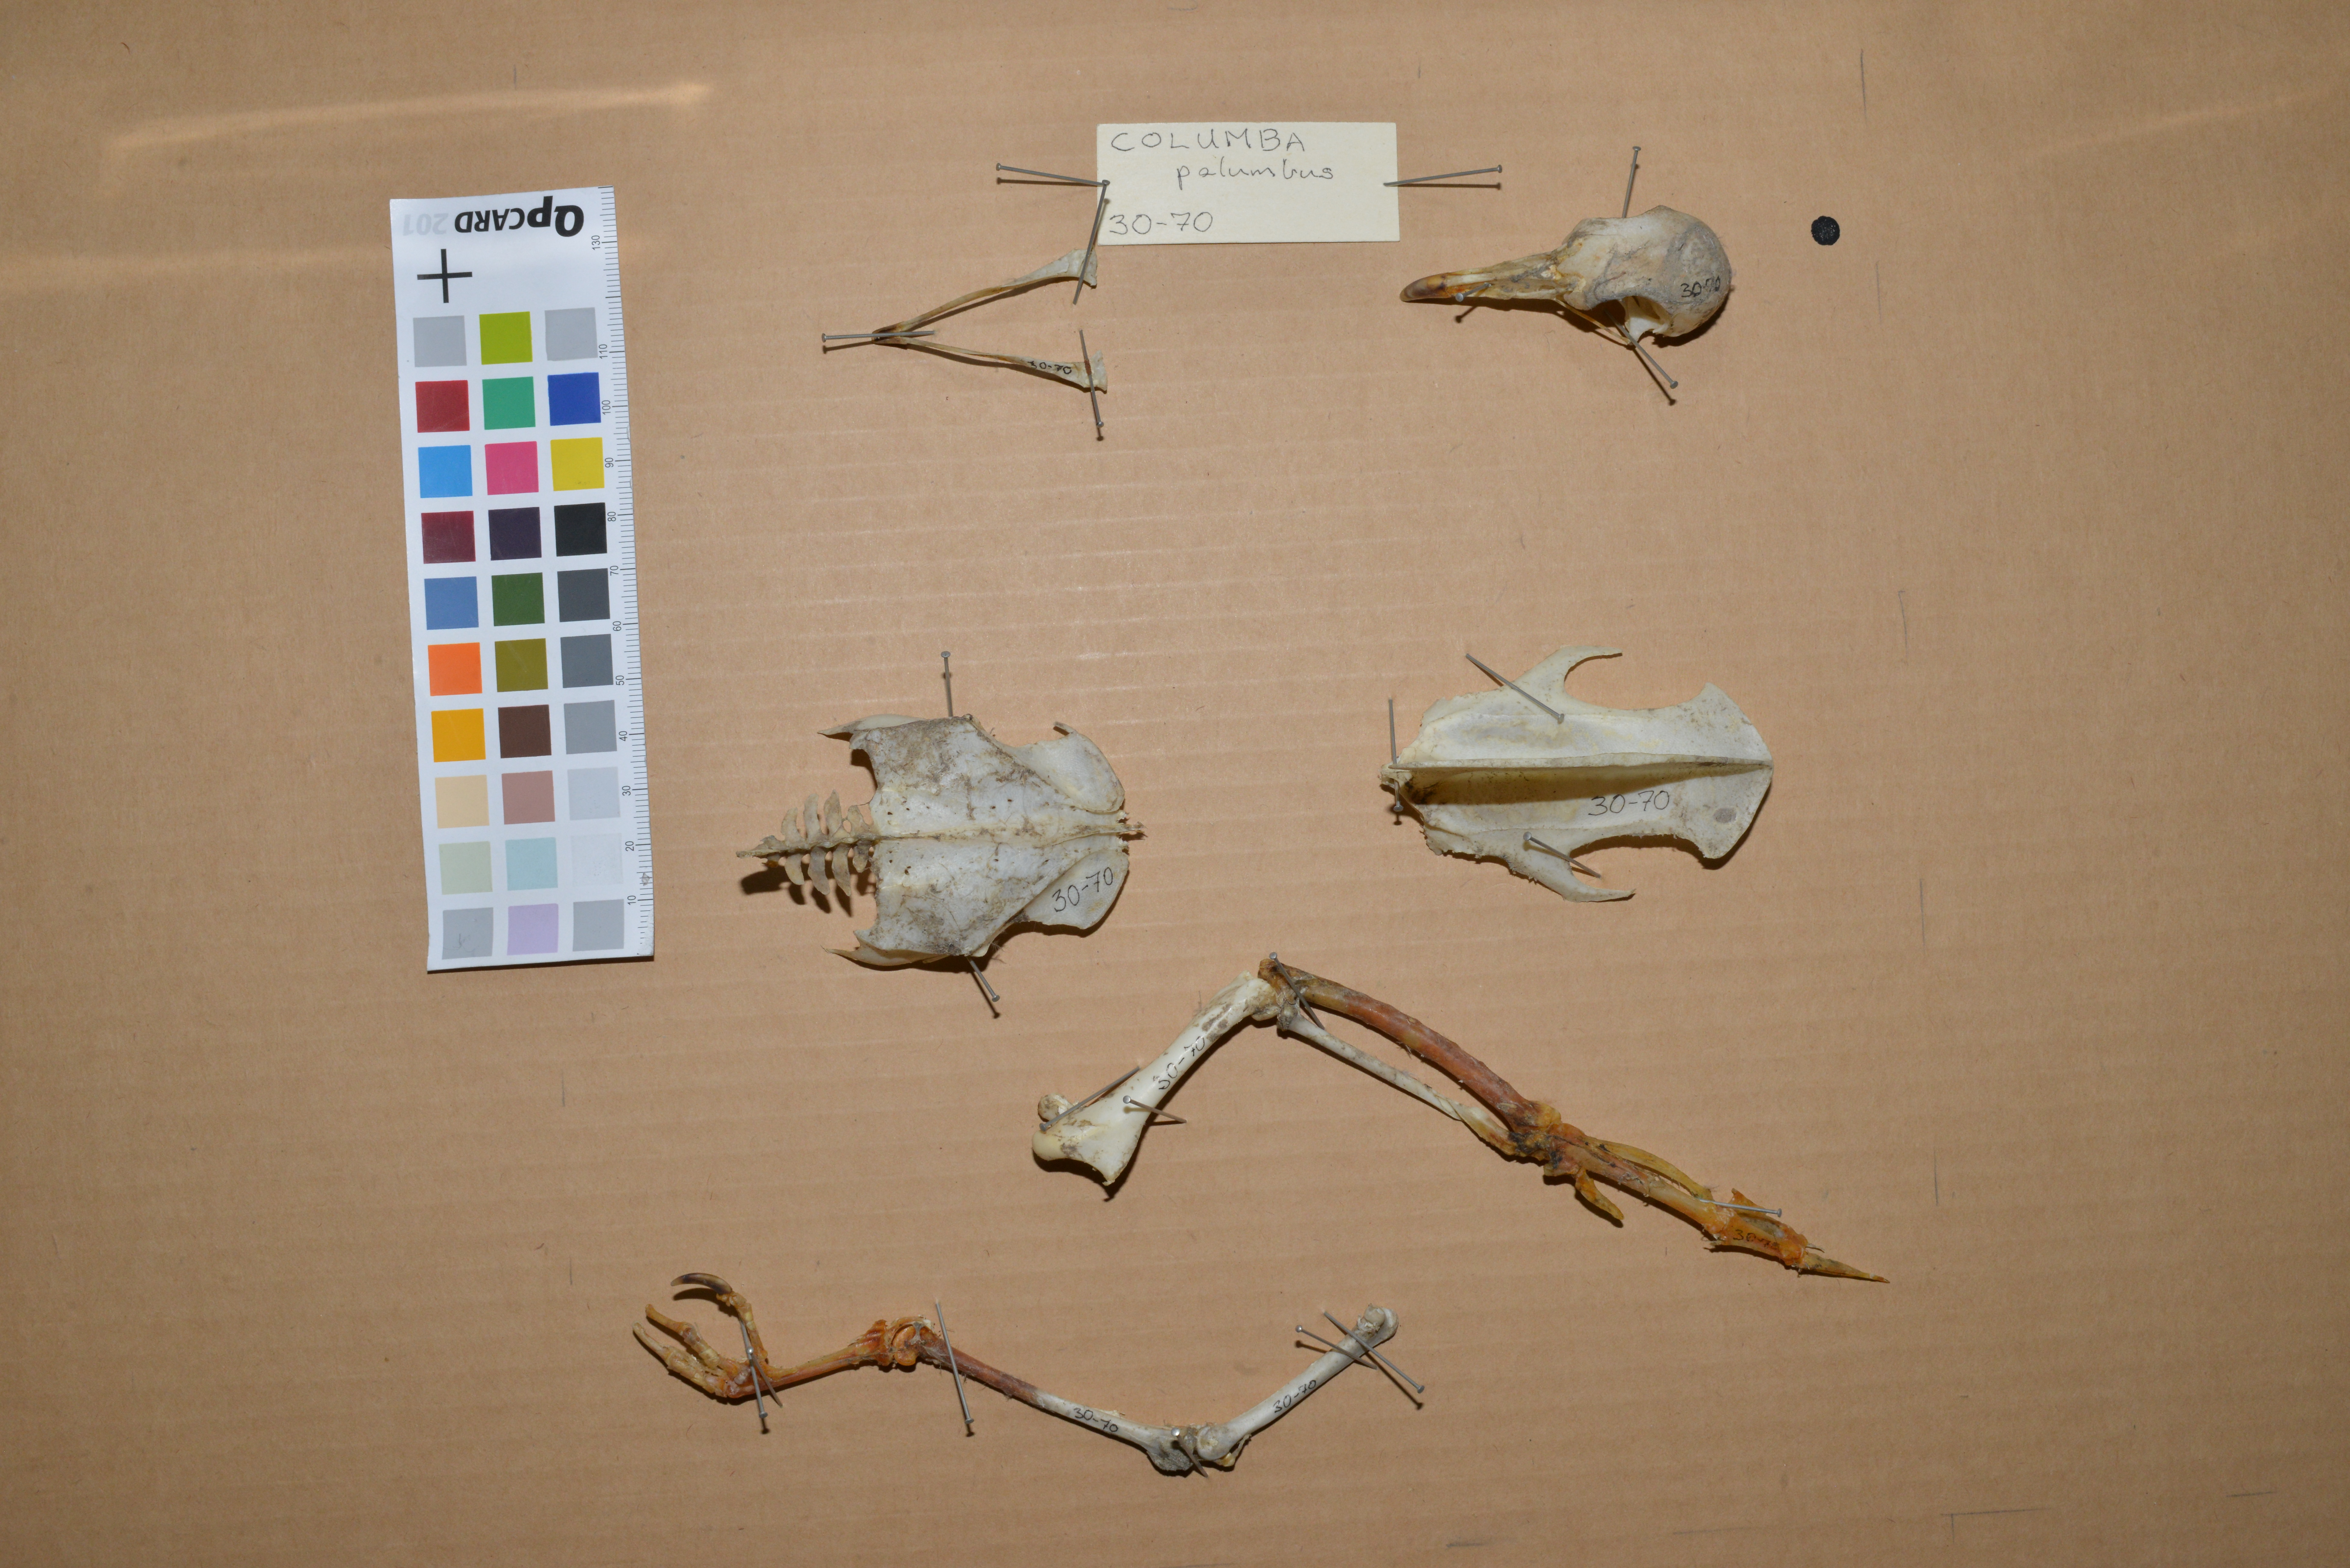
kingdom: Animalia
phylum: Chordata
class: Aves
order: Columbiformes
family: Columbidae
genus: Columba
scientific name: Columba palumbus
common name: Common wood pigeon
